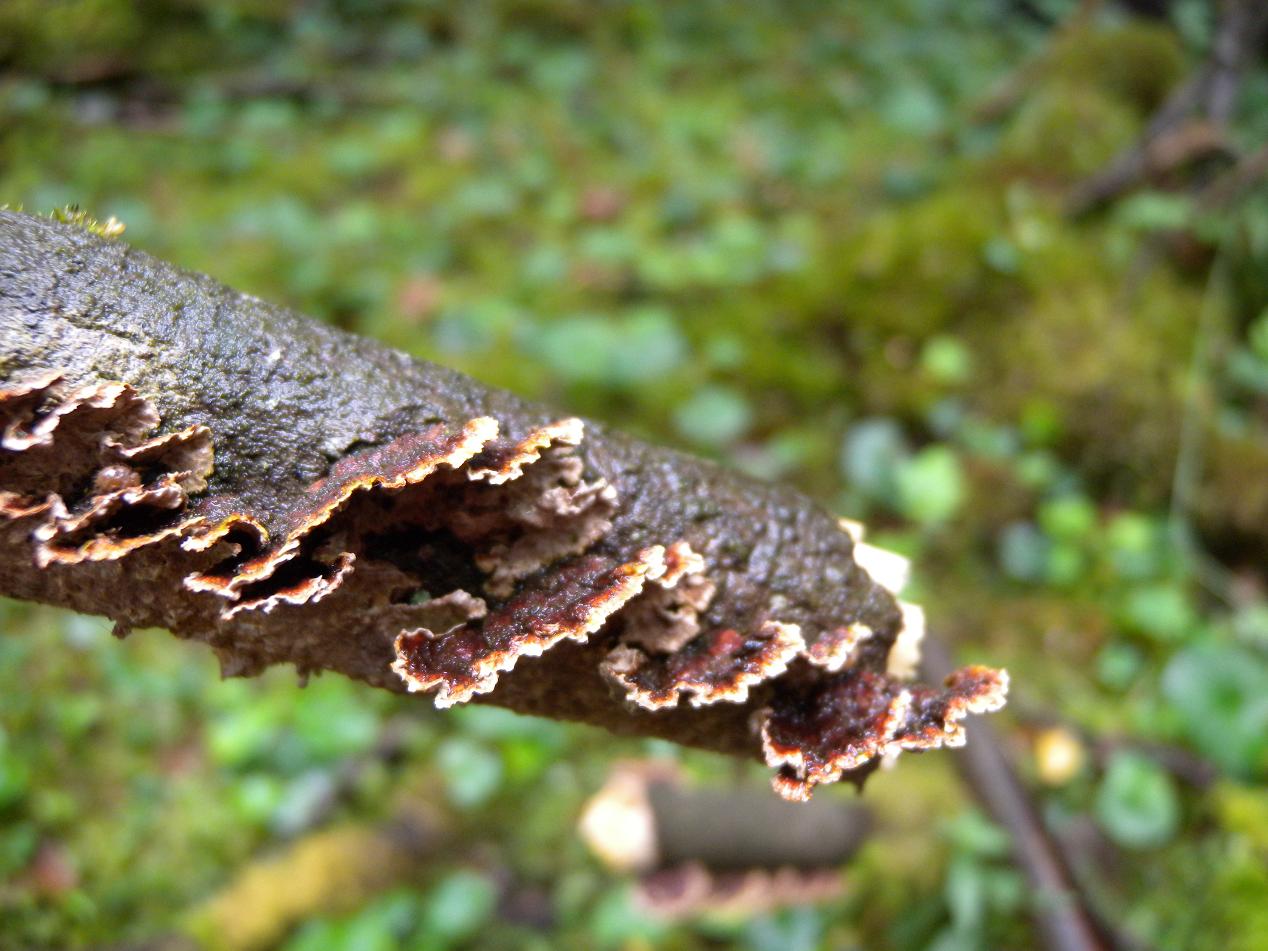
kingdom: Fungi
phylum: Basidiomycota
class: Agaricomycetes
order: Hymenochaetales
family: Hymenochaetaceae
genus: Hydnoporia
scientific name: Hydnoporia tabacina
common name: tobaksbrun ruslædersvamp
